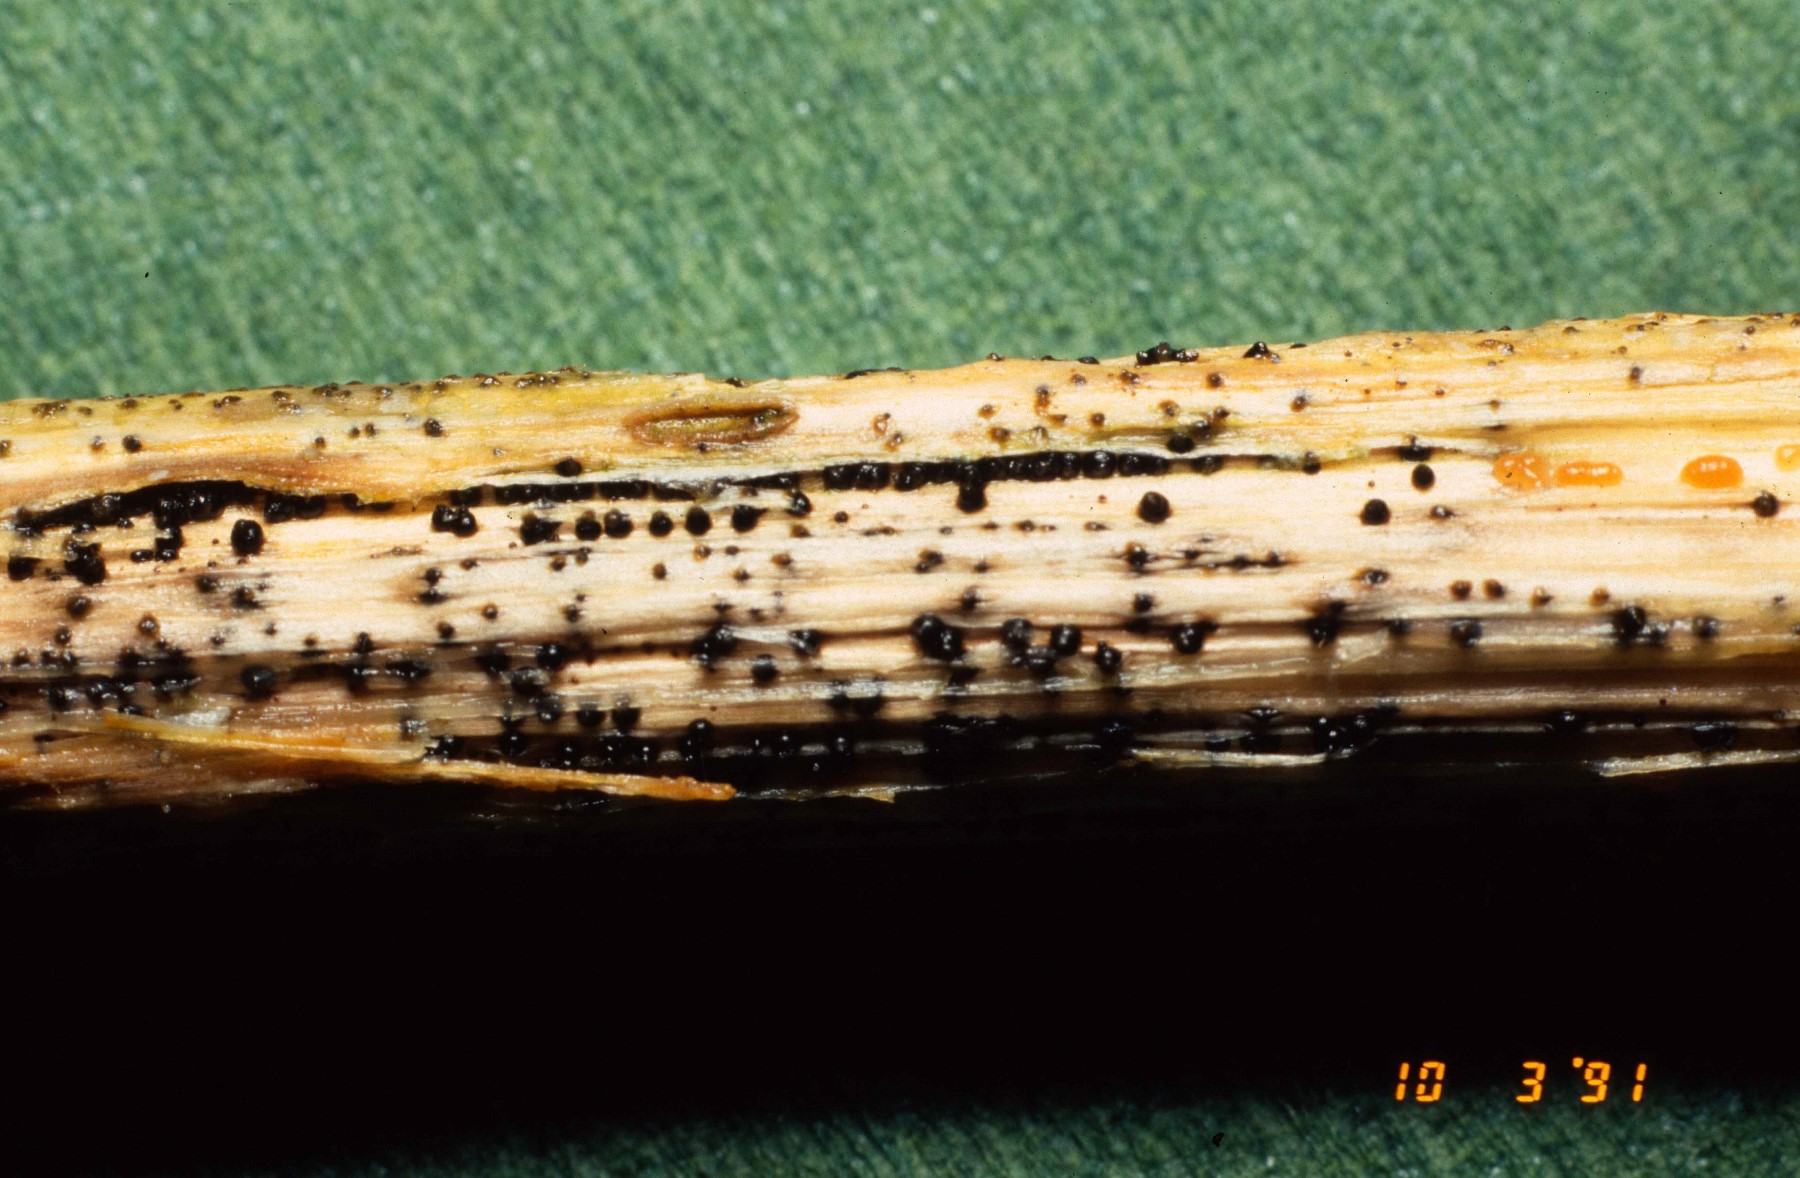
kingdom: Fungi
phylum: Ascomycota
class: Dothideomycetes
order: Pleosporales
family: Leptosphaeriaceae
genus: Leptosphaeria
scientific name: Leptosphaeria
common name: kulkegle
